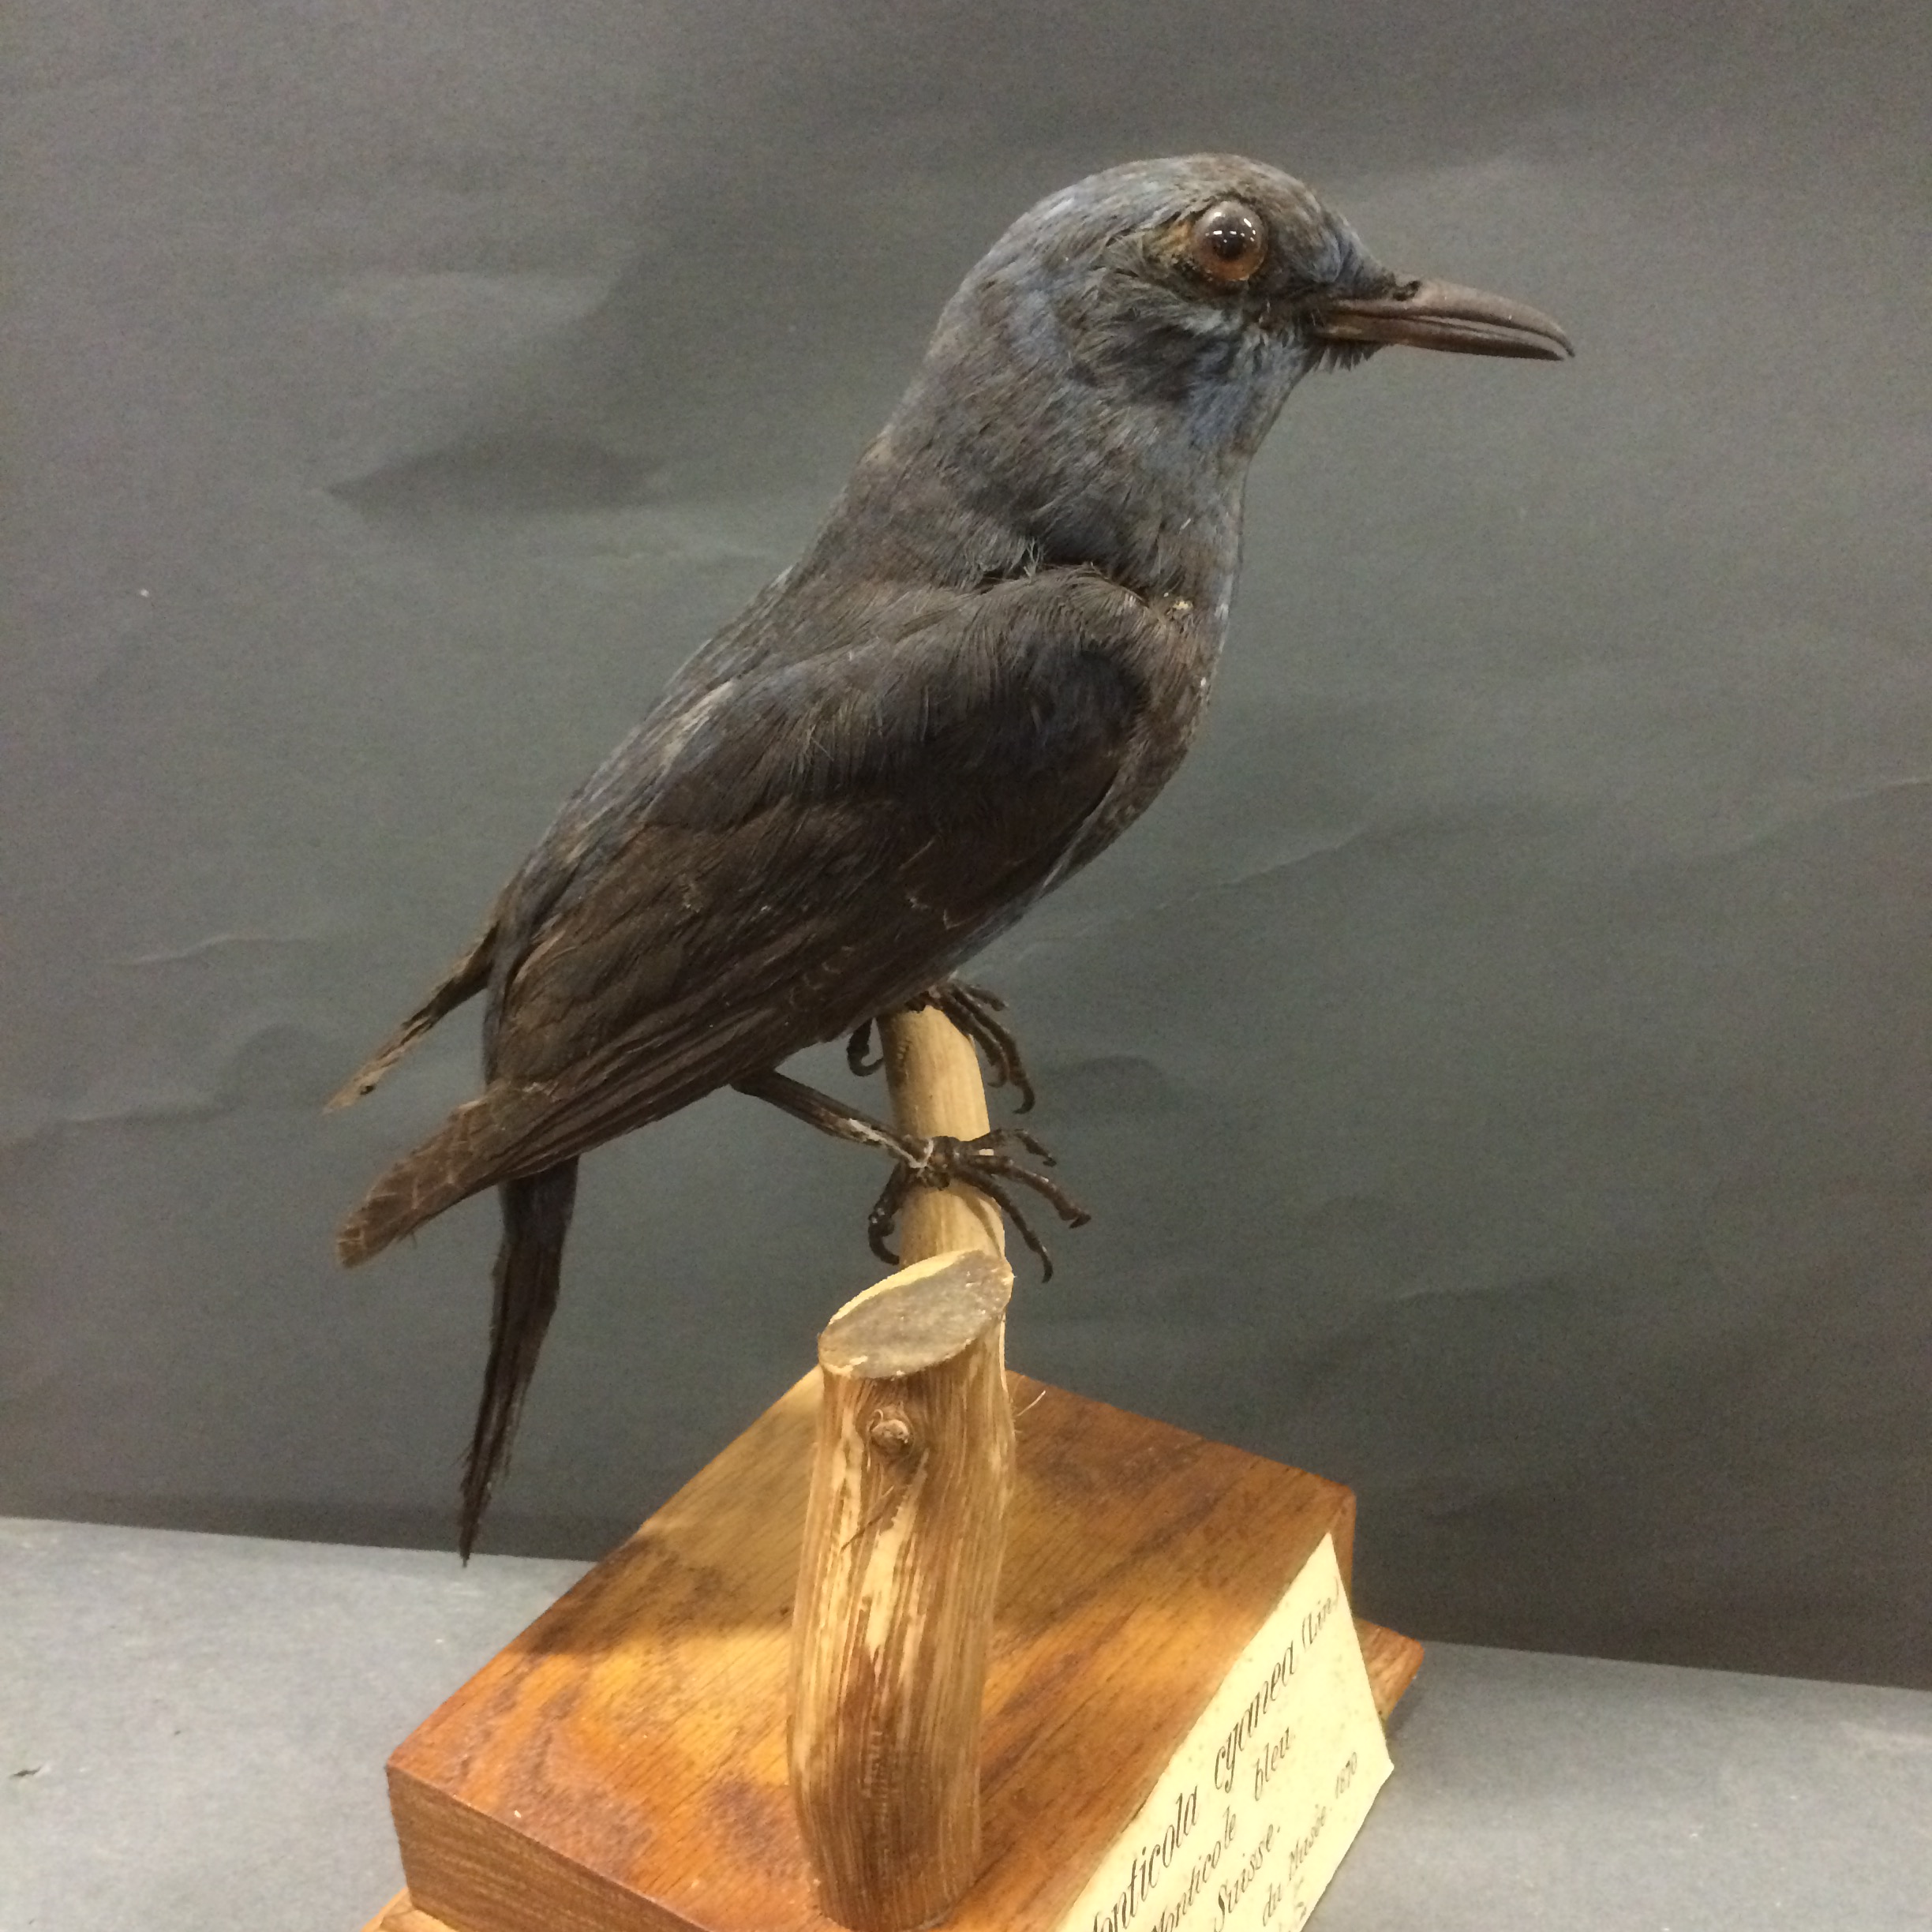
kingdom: Animalia
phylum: Chordata
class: Aves
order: Passeriformes
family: Muscicapidae
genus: Monticola
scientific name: Monticola solitarius
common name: Blue rock thrush
